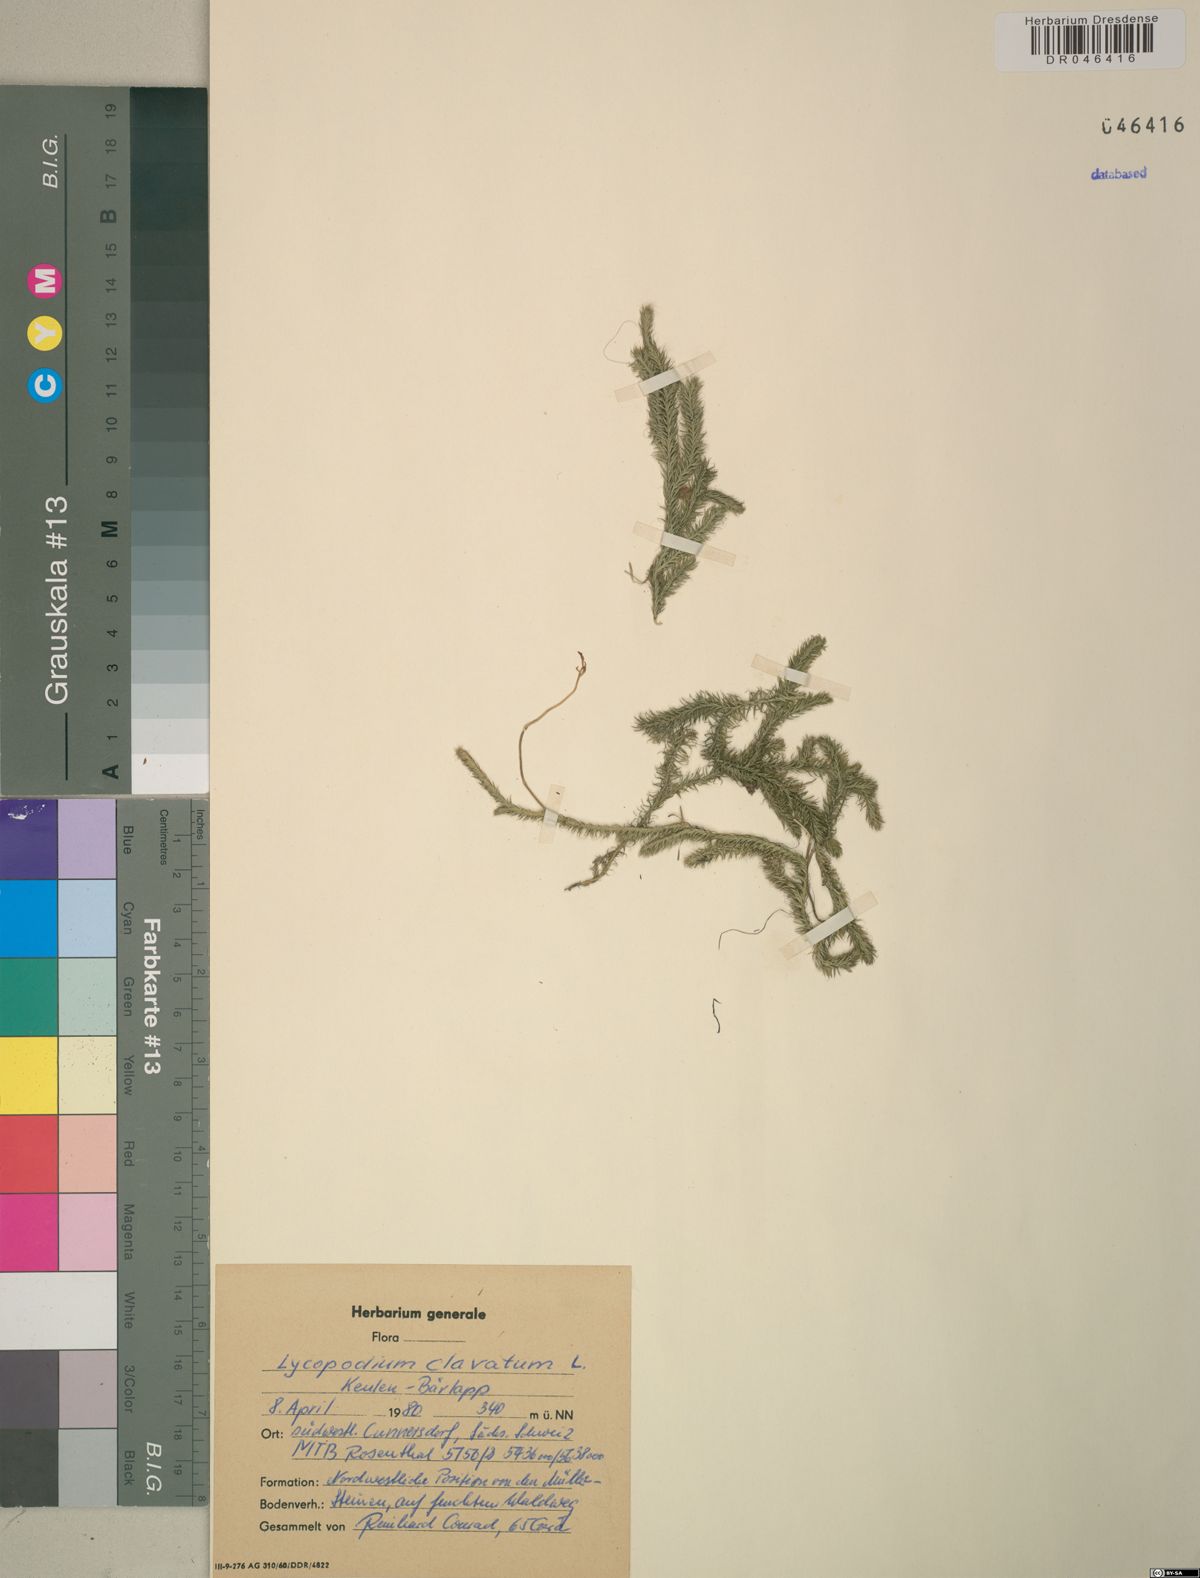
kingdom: Plantae
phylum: Tracheophyta
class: Lycopodiopsida
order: Lycopodiales
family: Lycopodiaceae
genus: Lycopodium
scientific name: Lycopodium clavatum
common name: Stag's-horn clubmoss
